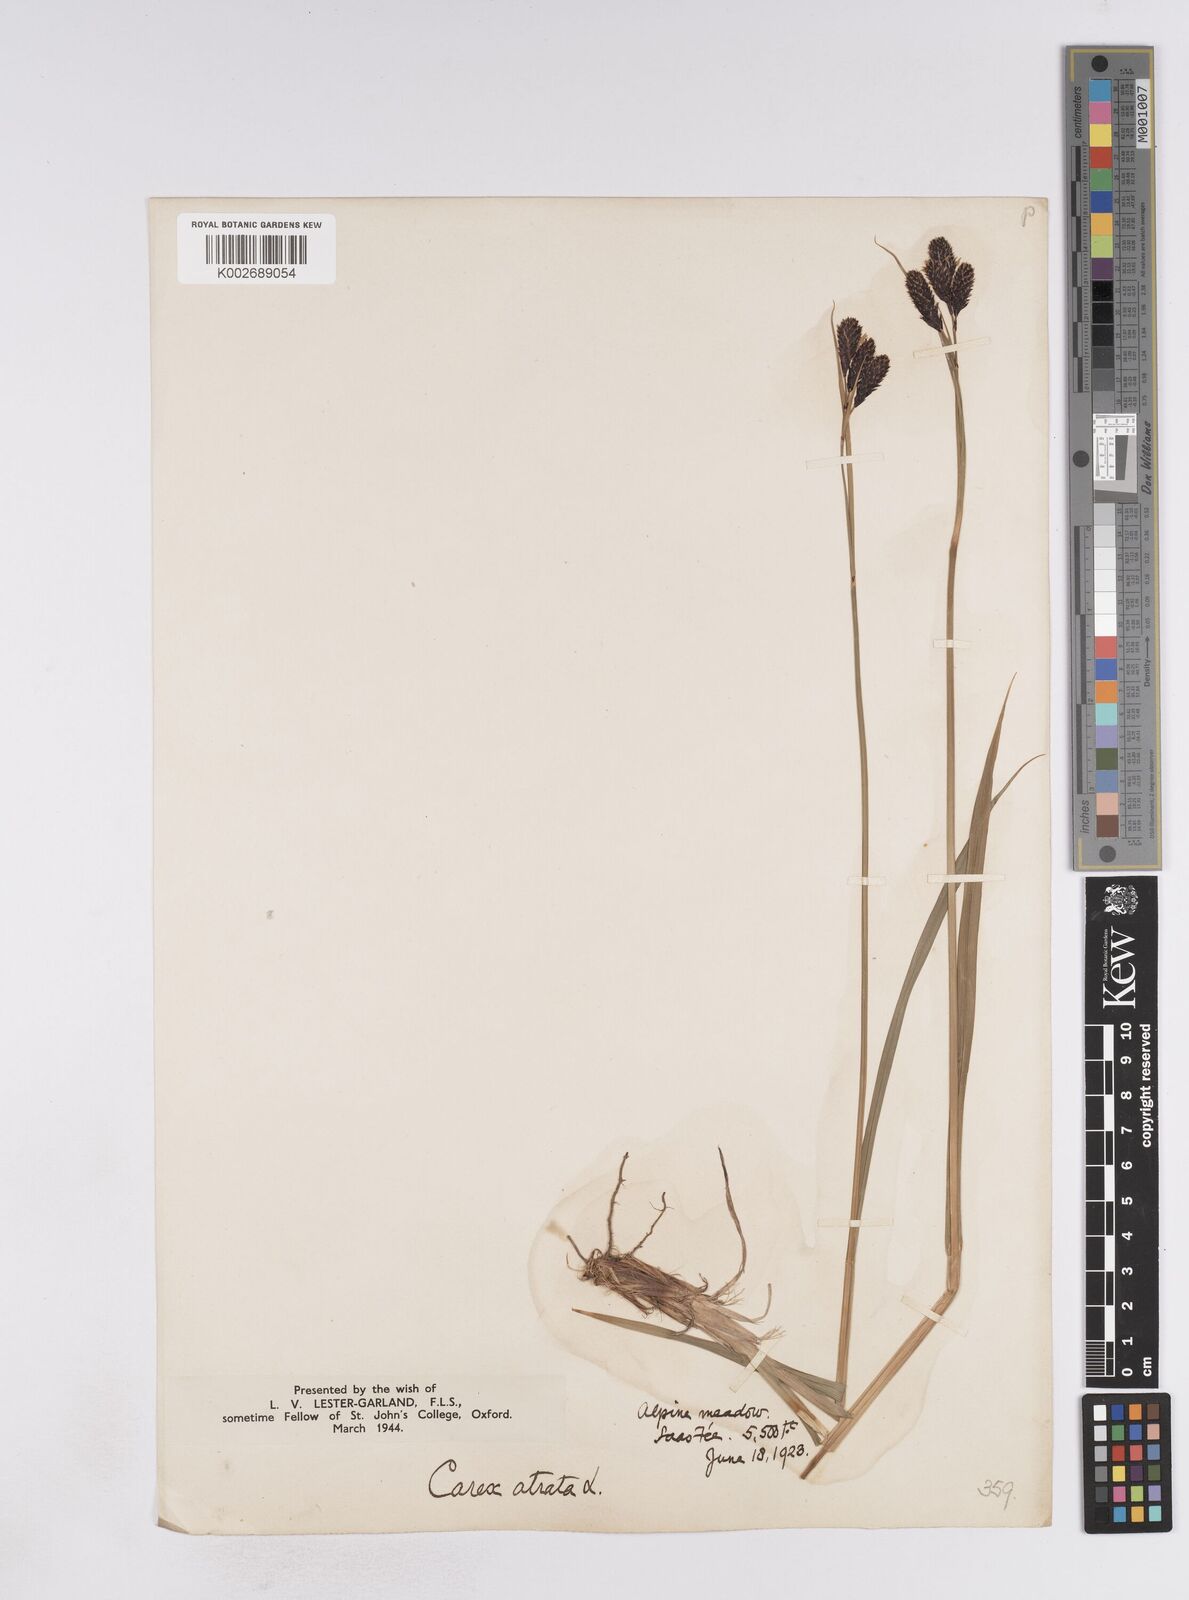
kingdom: Plantae
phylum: Tracheophyta
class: Liliopsida
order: Poales
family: Cyperaceae
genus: Carex
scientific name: Carex atrata
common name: Black alpine sedge
